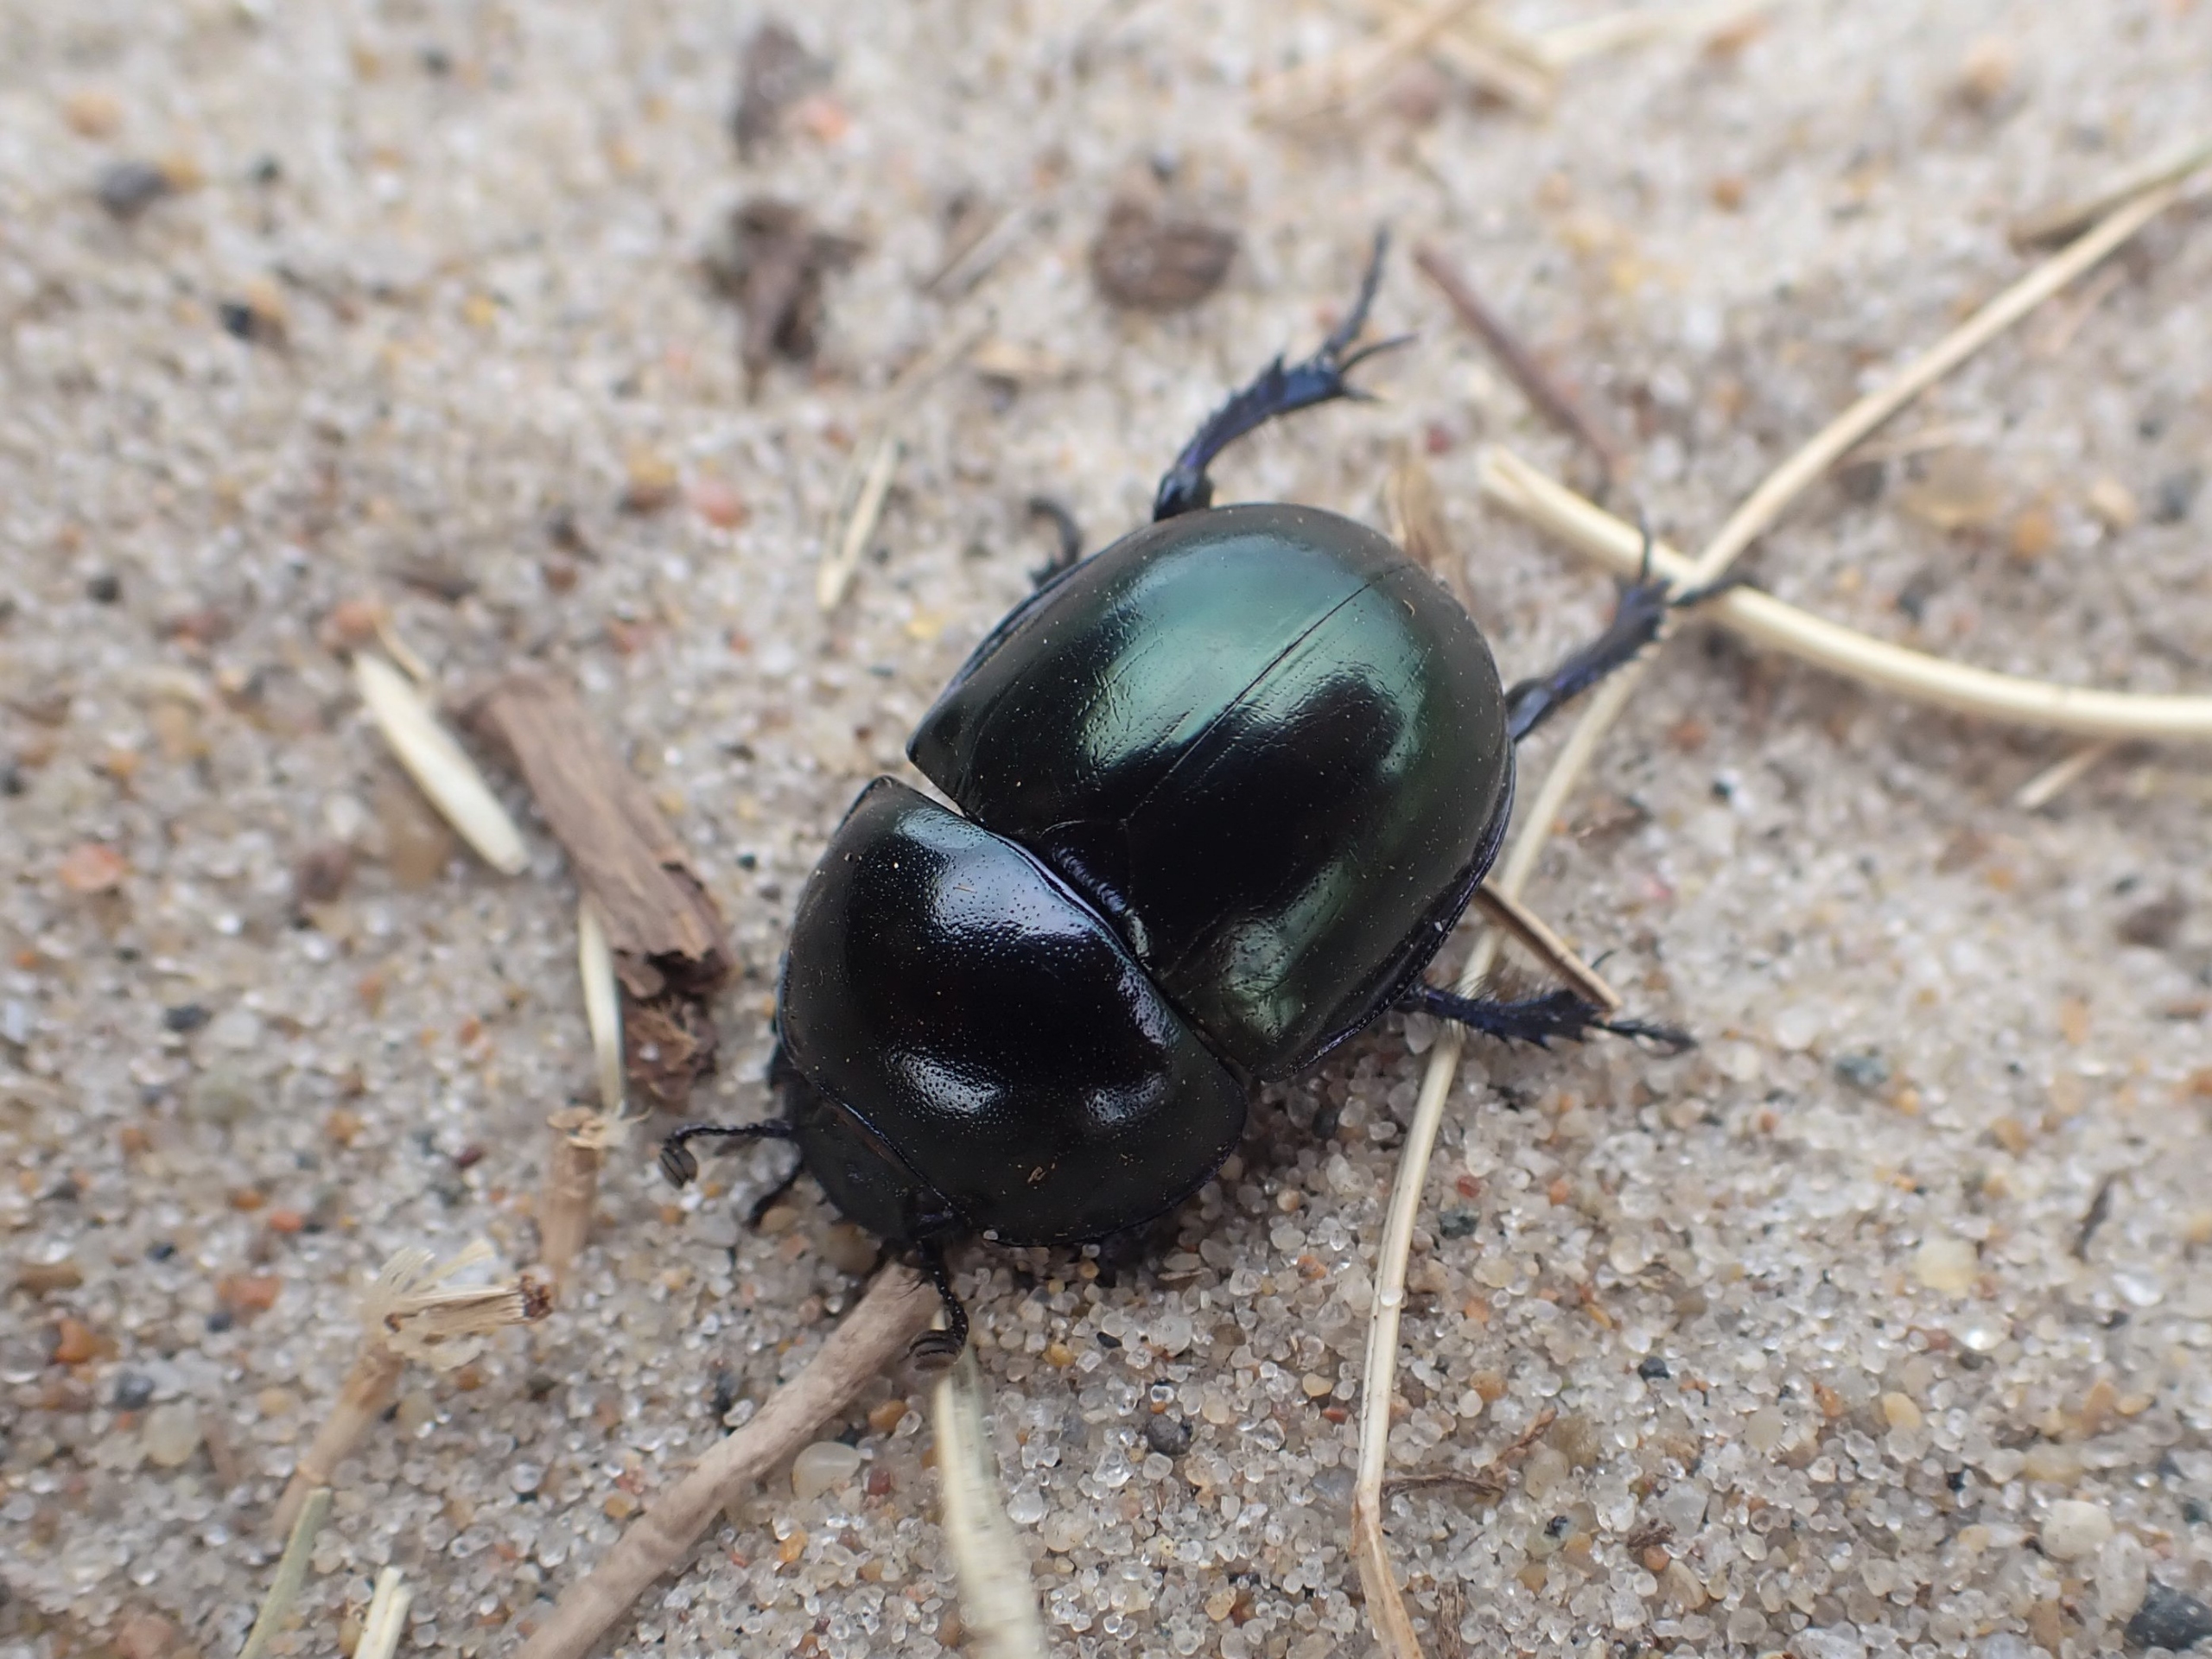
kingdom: Animalia
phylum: Arthropoda
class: Insecta
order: Coleoptera
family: Geotrupidae
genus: Trypocopris
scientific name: Trypocopris vernalis
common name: Glat skarnbasse
